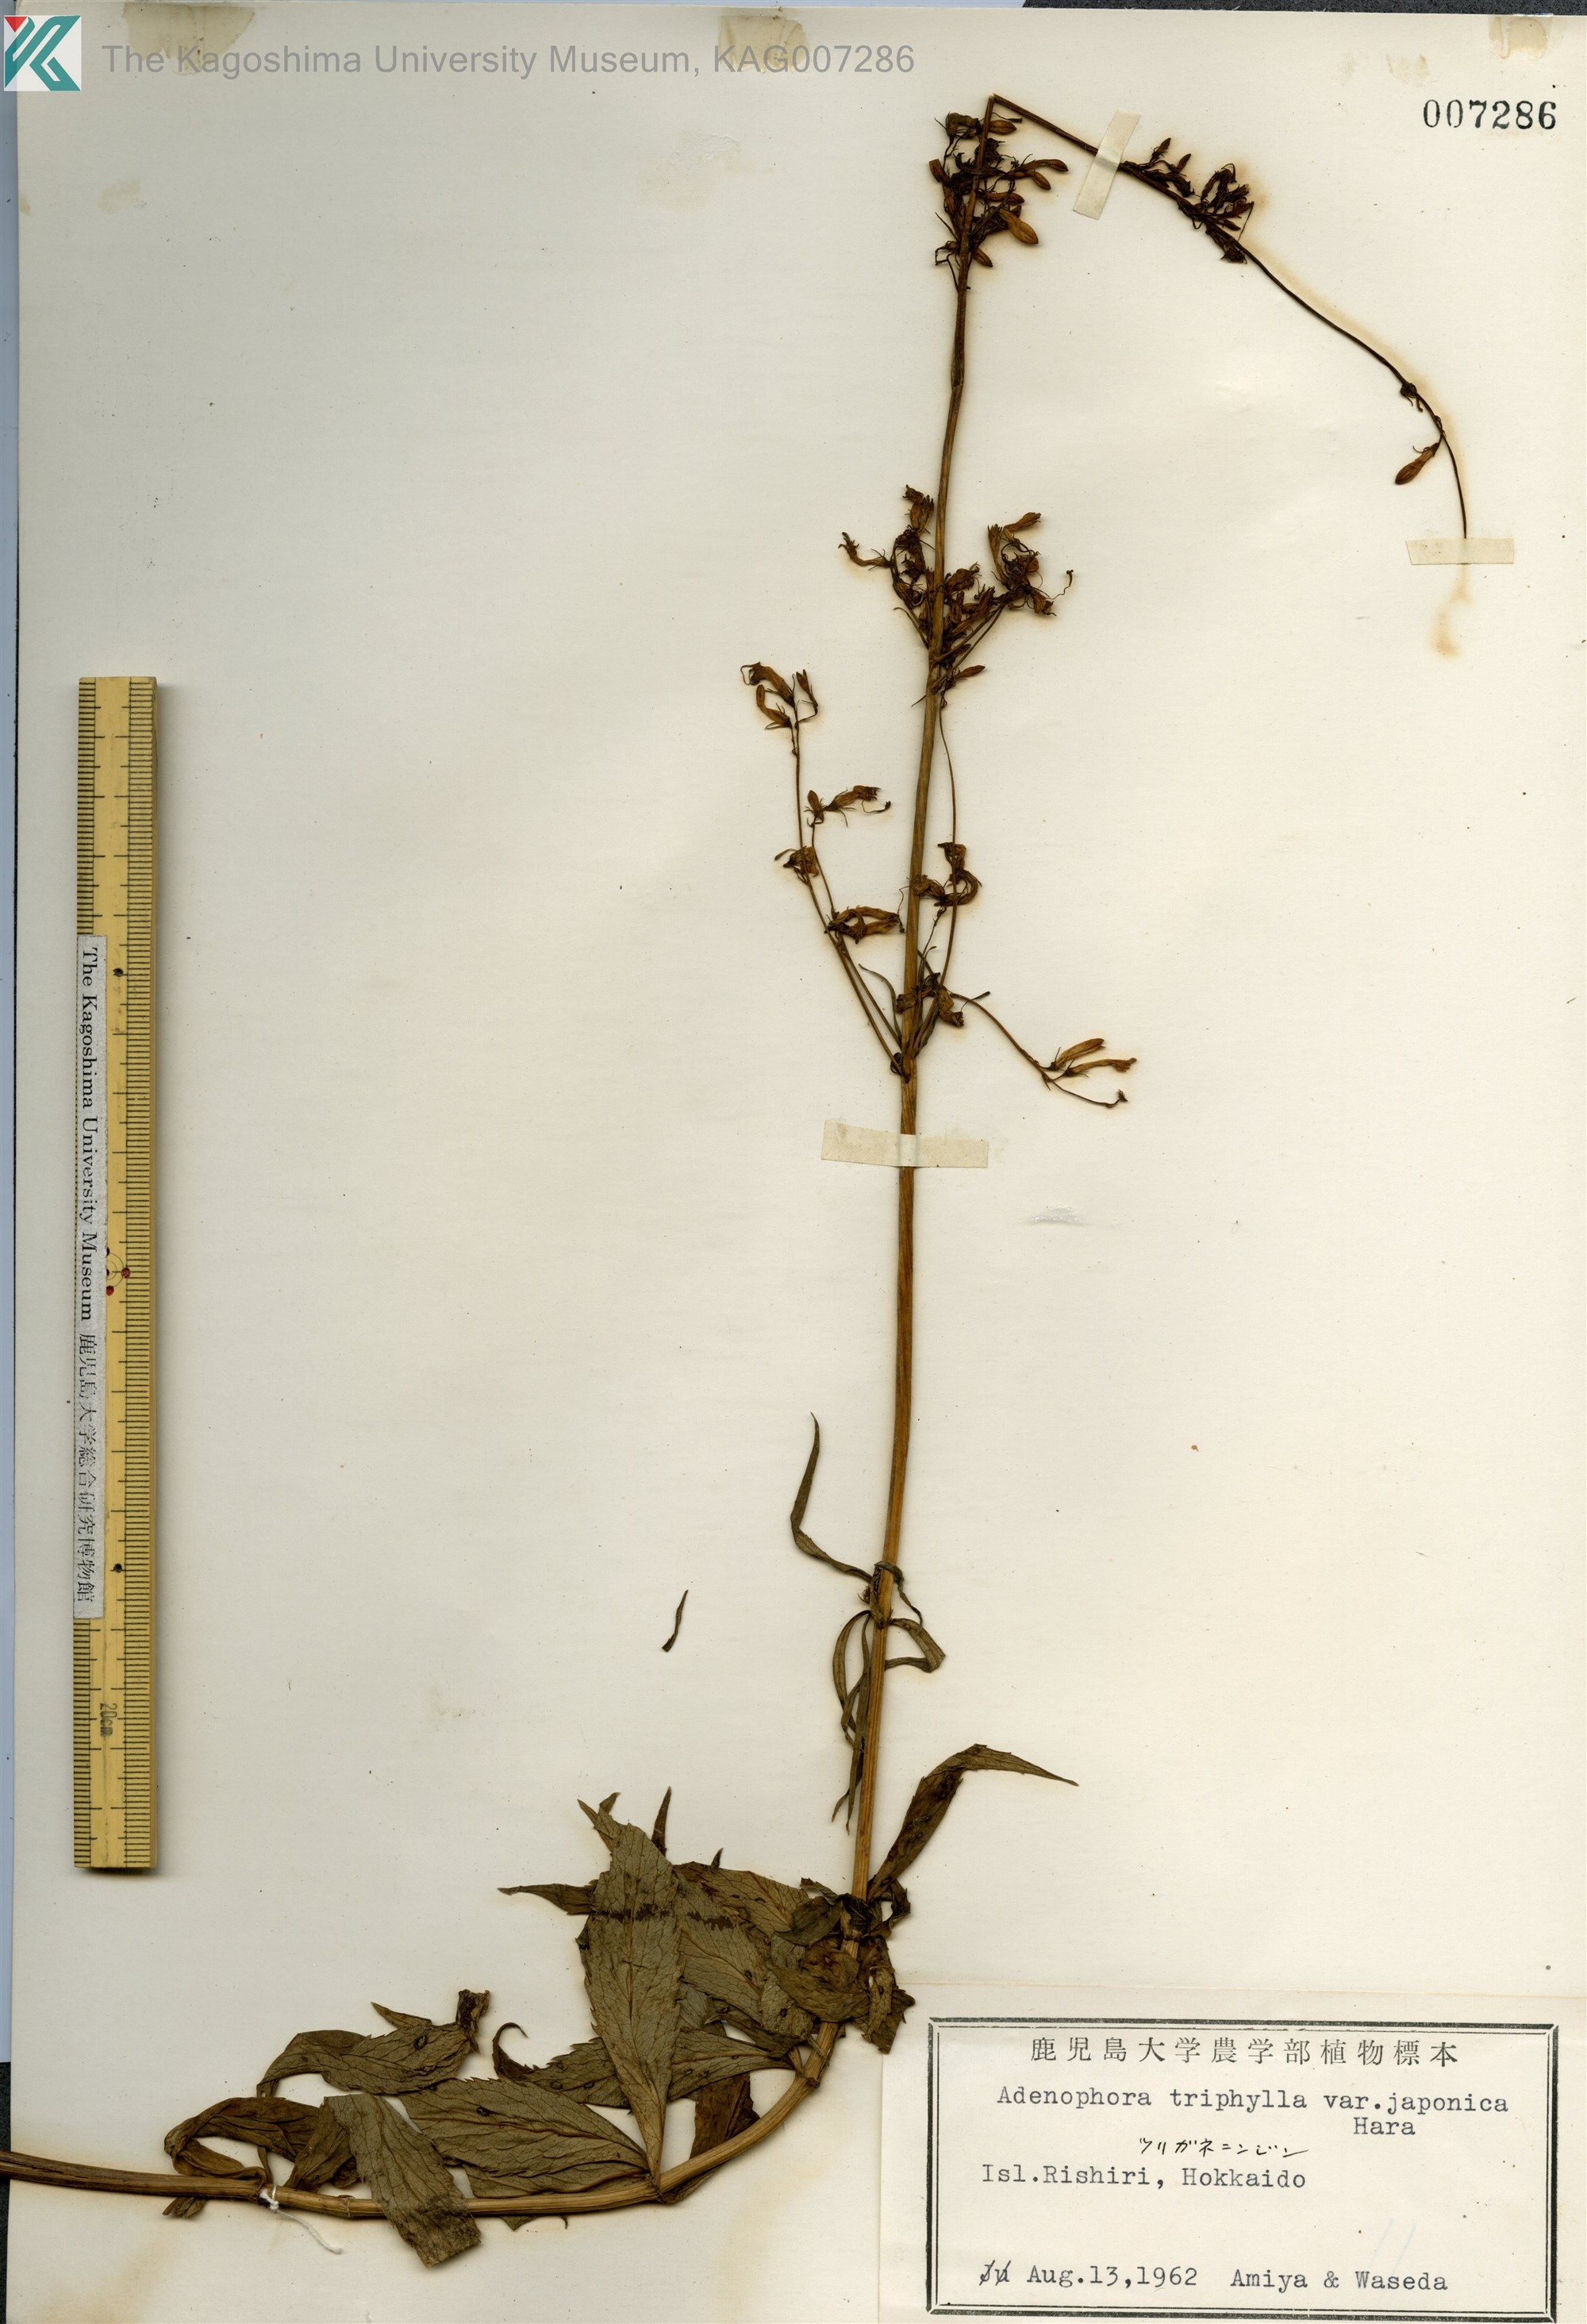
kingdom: Plantae
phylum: Tracheophyta
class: Magnoliopsida
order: Asterales
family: Campanulaceae
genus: Adenophora
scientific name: Adenophora triphylla
